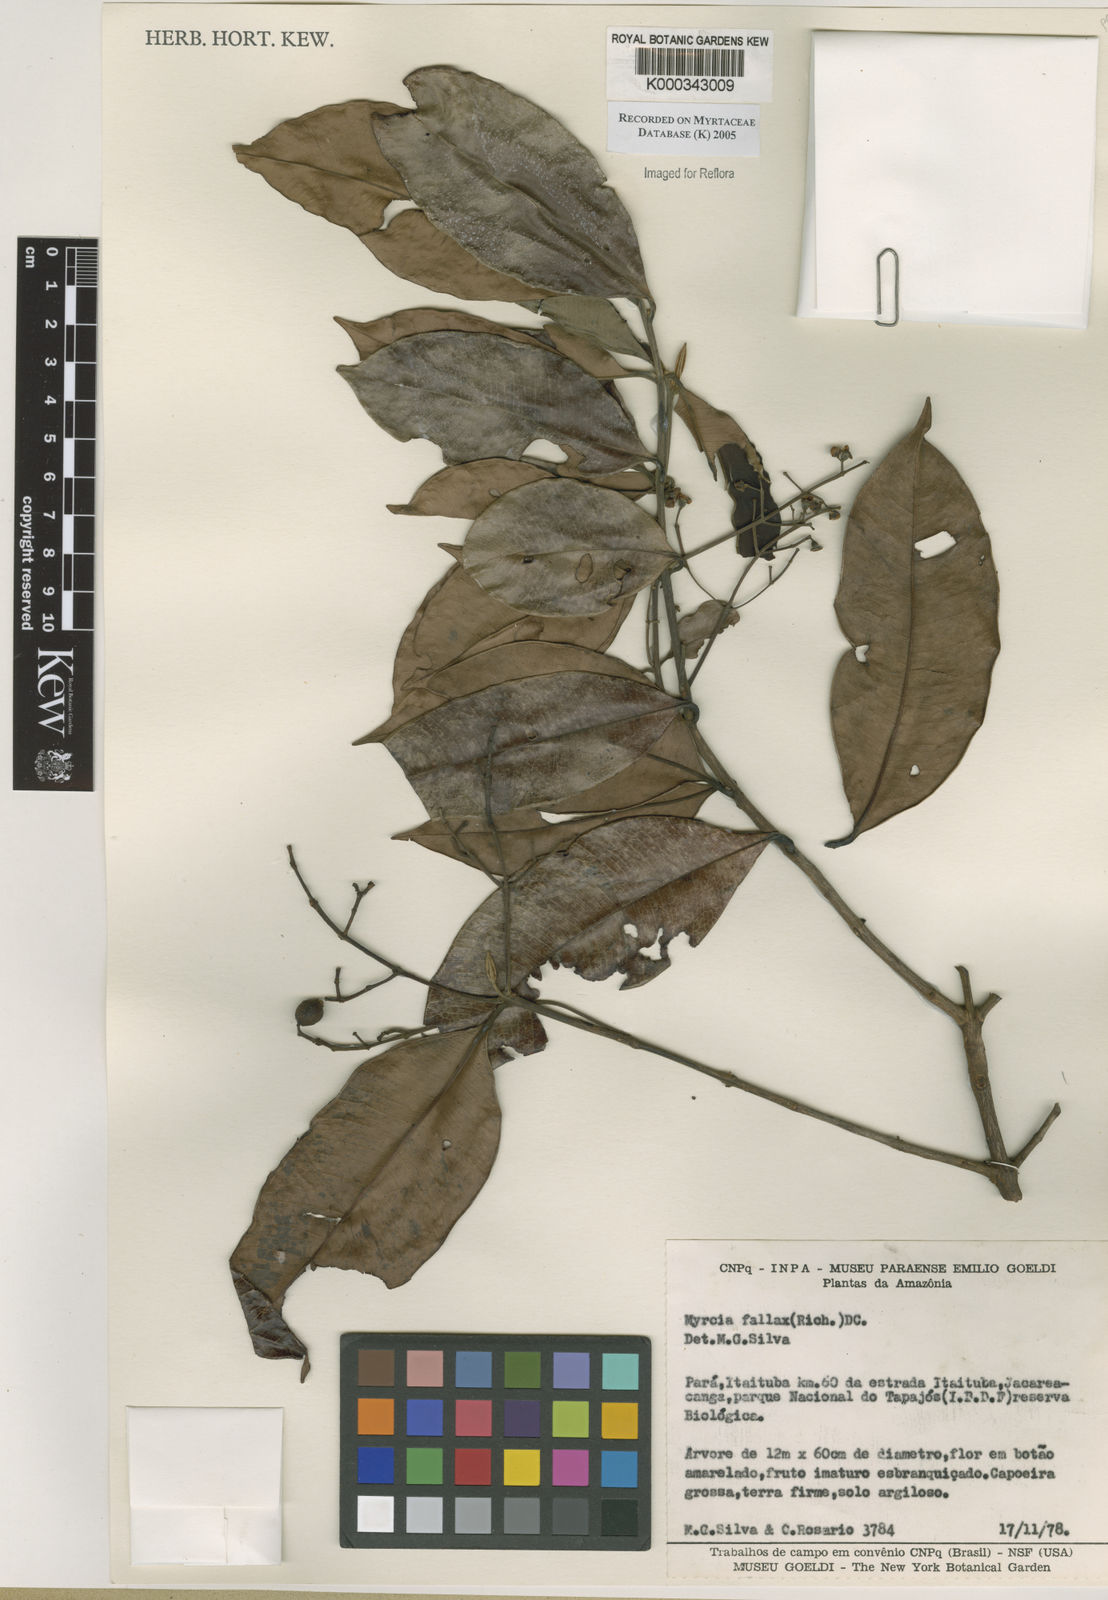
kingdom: Plantae
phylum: Tracheophyta
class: Magnoliopsida
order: Myrtales
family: Myrtaceae
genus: Myrcia
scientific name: Myrcia splendens
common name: Surinam cherry
